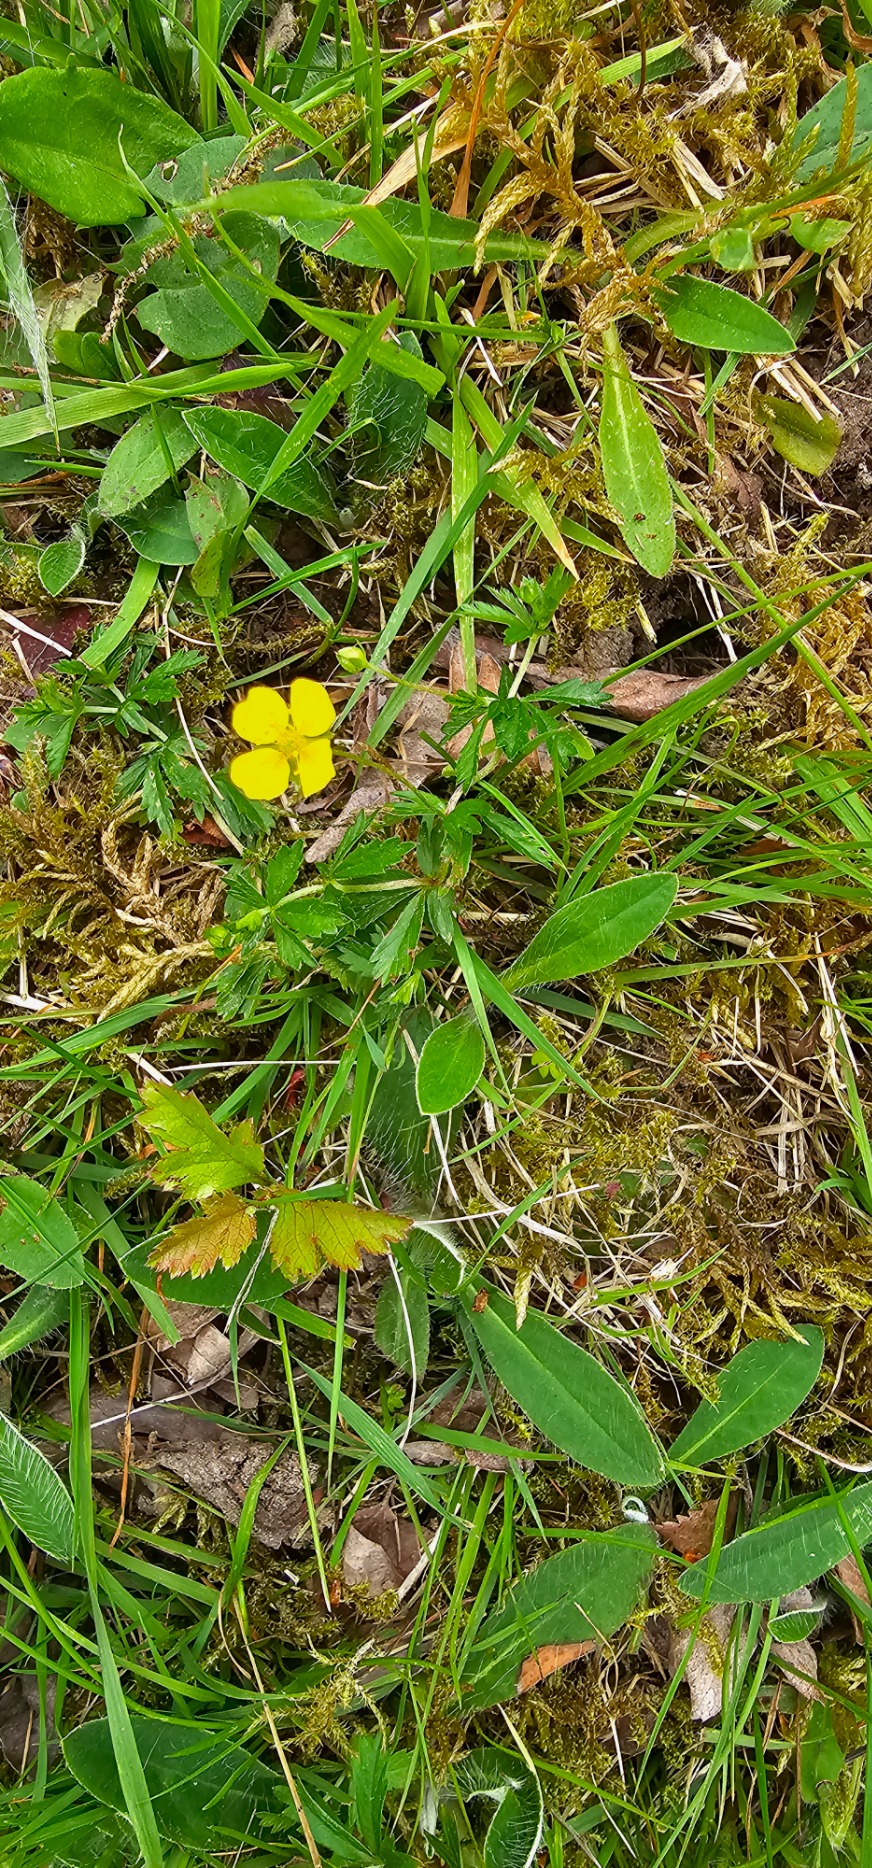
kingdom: Plantae
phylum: Tracheophyta
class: Magnoliopsida
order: Rosales
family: Rosaceae
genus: Potentilla
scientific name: Potentilla erecta
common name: Tormentil
